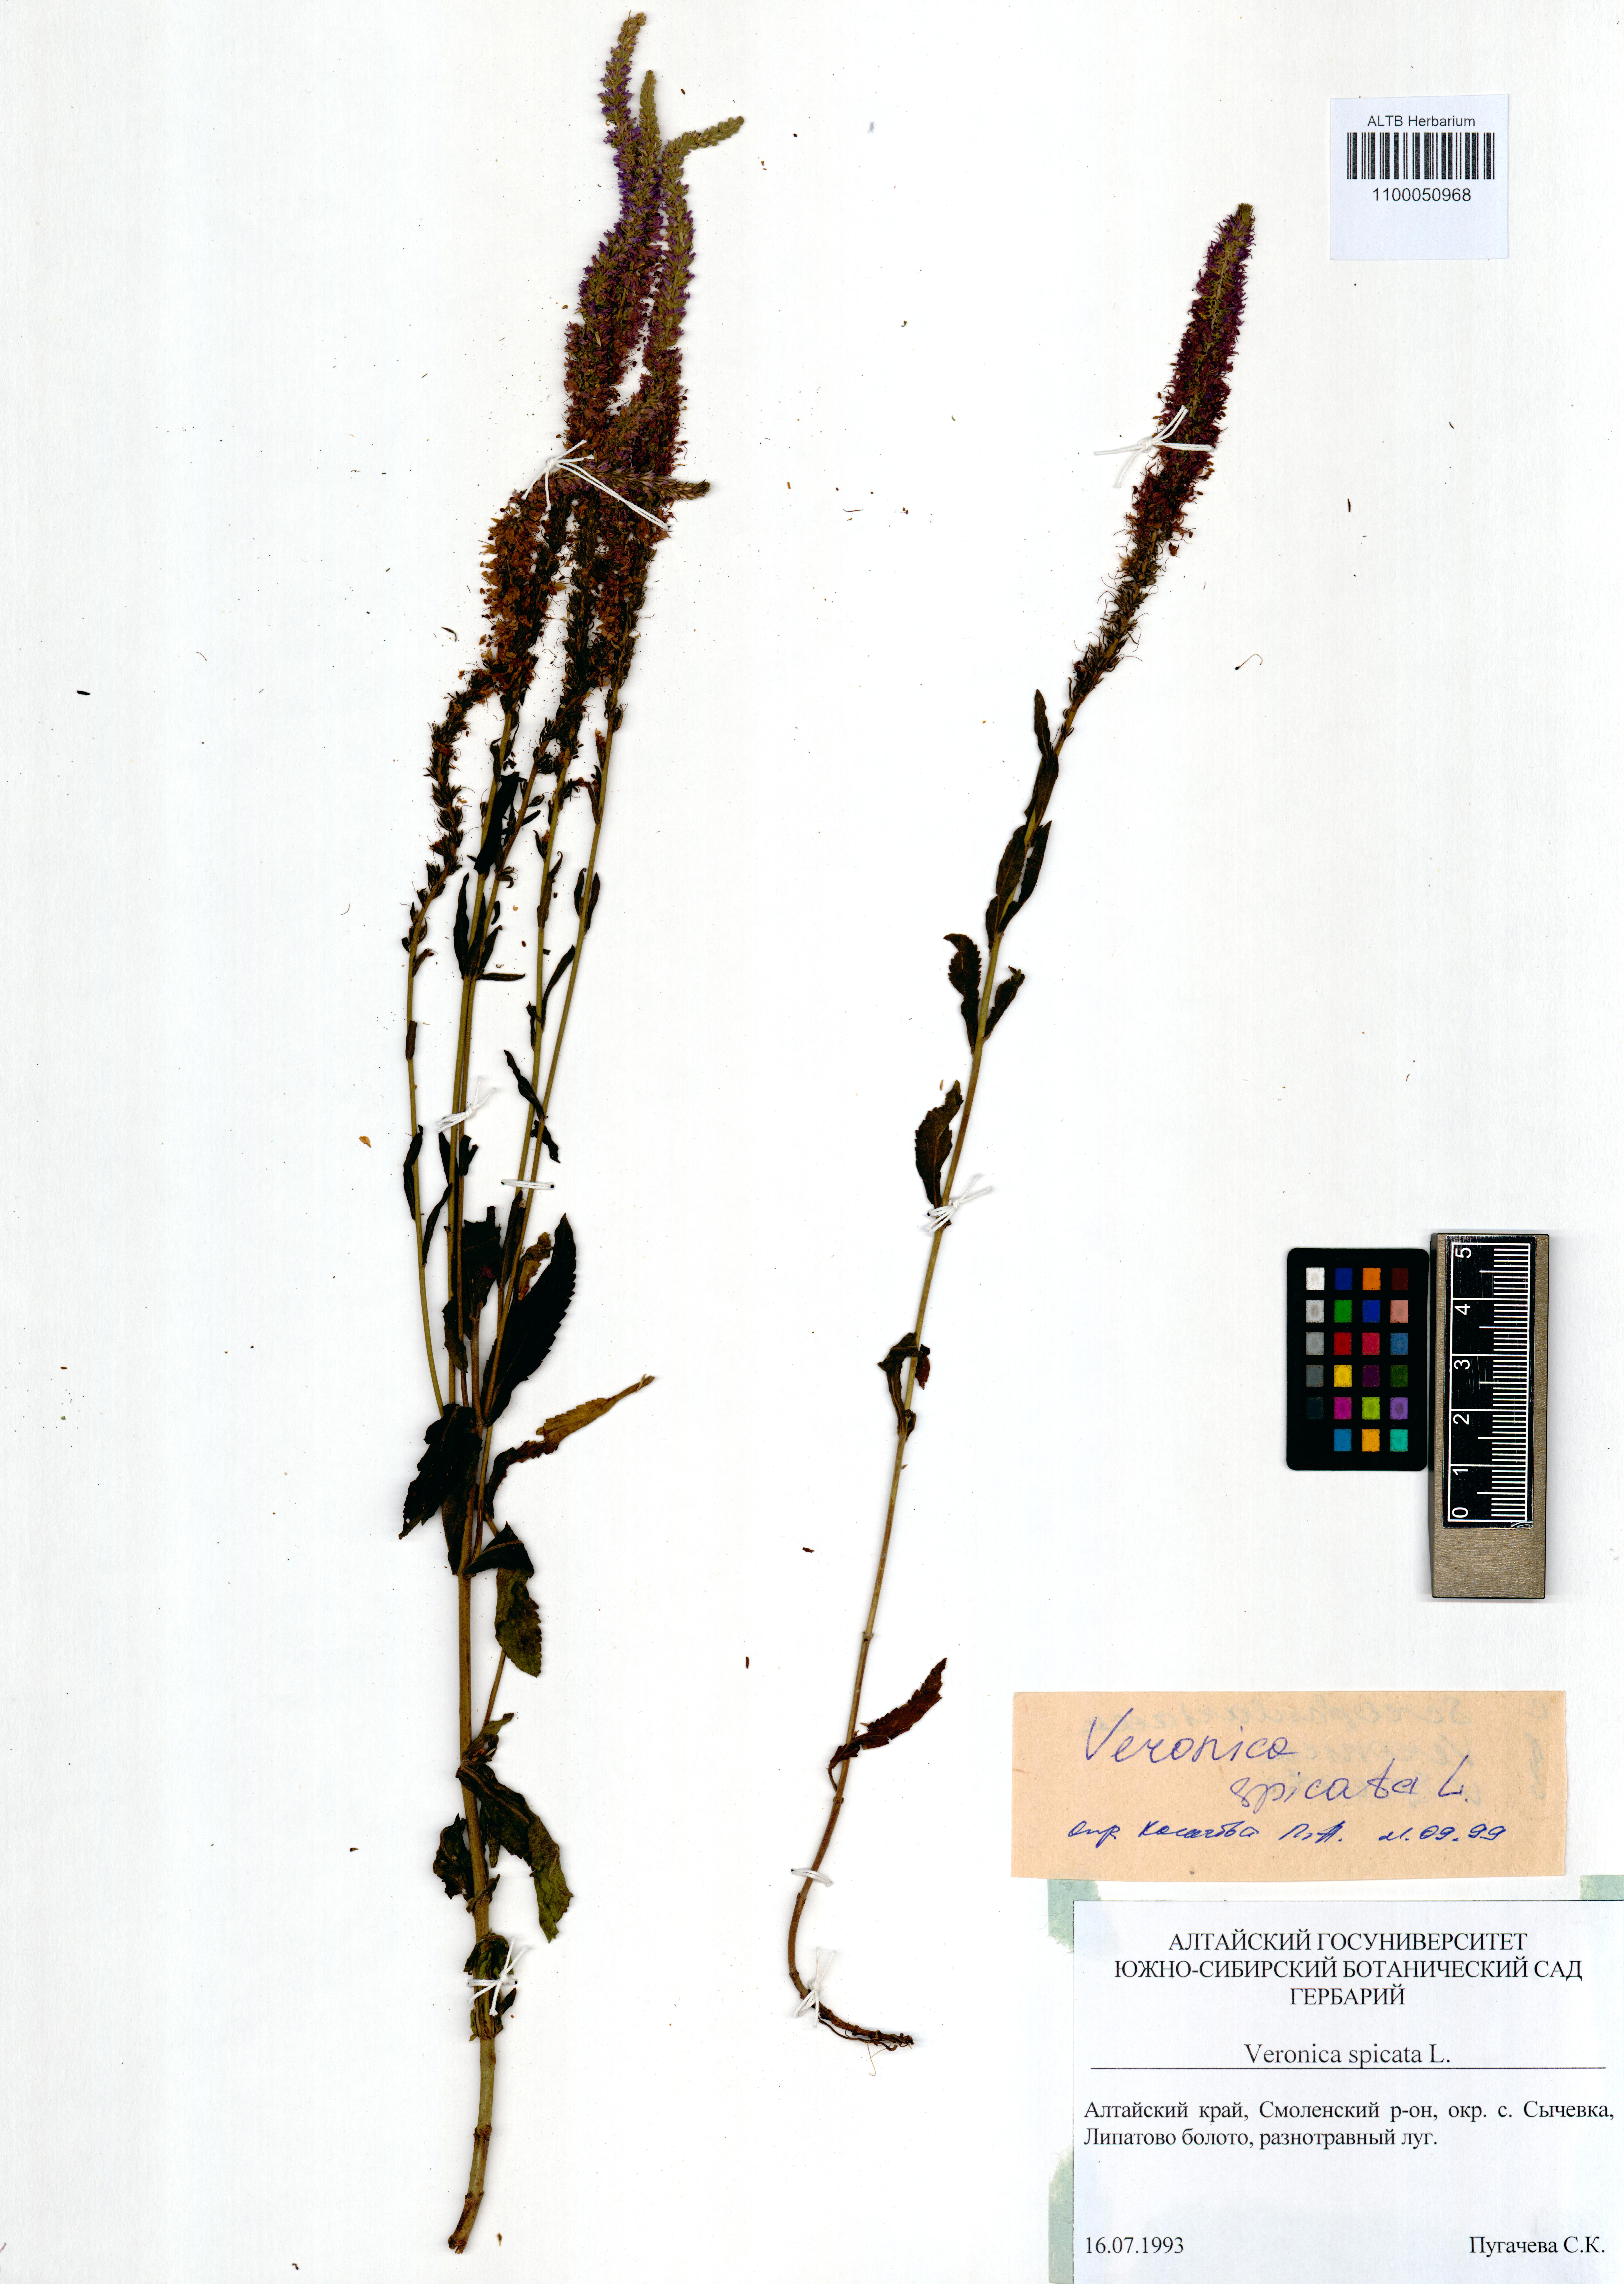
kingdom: Plantae
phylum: Tracheophyta
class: Magnoliopsida
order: Lamiales
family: Plantaginaceae
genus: Veronica
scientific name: Veronica spicata
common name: Spiked speedwell
